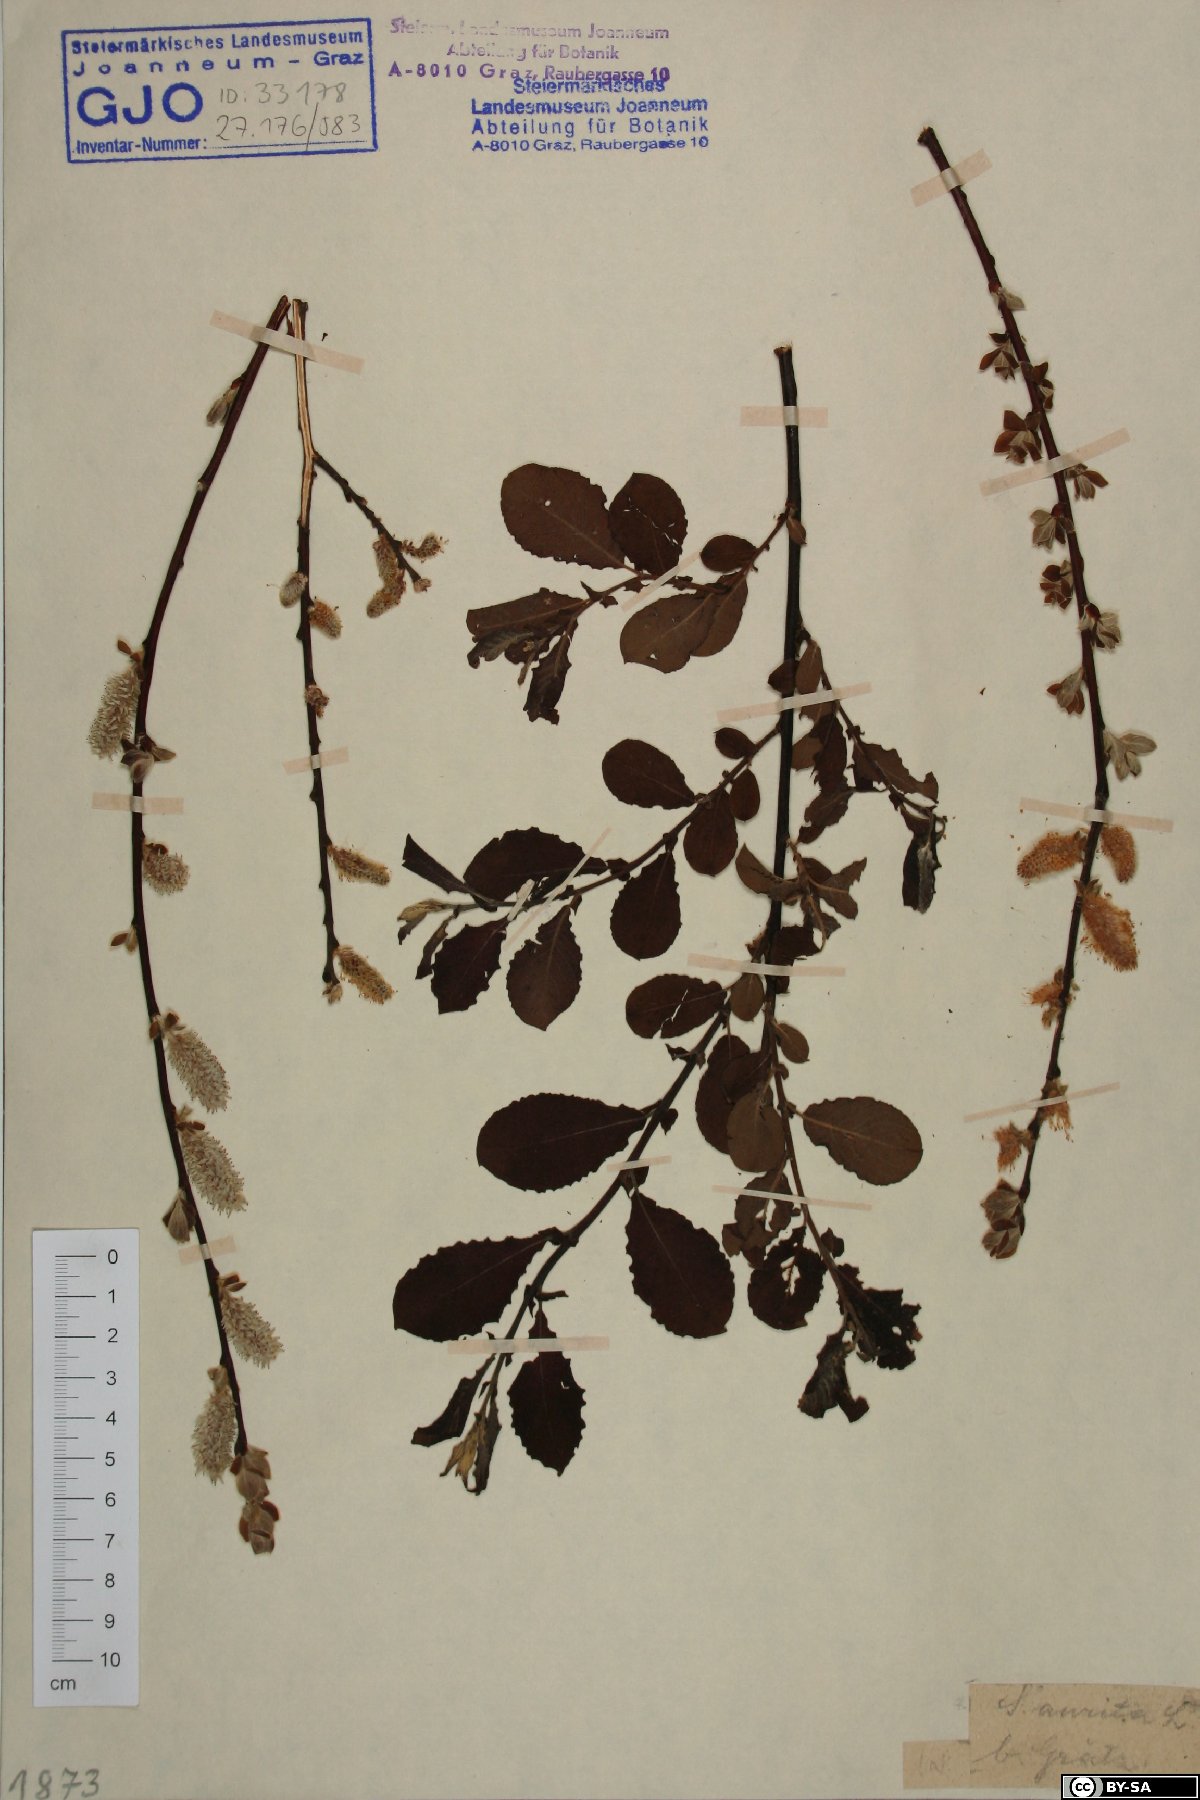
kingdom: Plantae
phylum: Tracheophyta
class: Magnoliopsida
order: Malpighiales
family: Salicaceae
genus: Salix
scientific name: Salix aurita
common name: Eared willow
